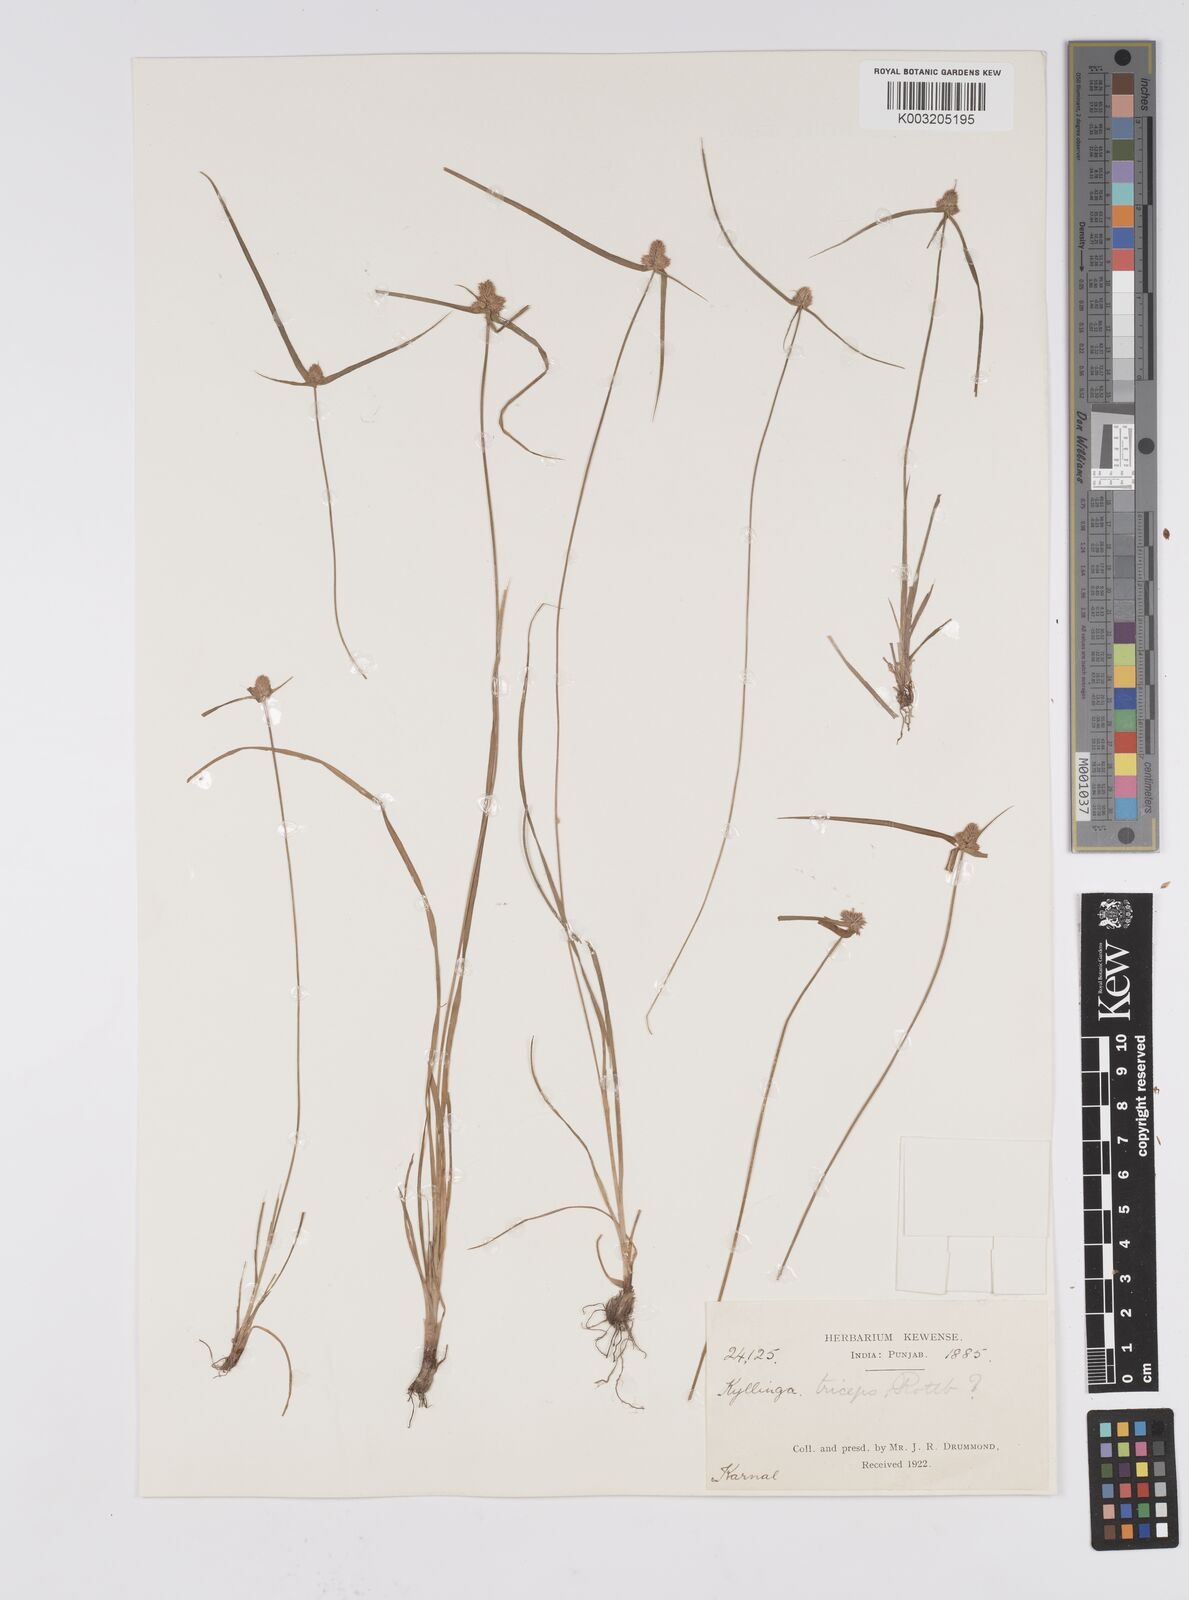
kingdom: Plantae
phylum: Tracheophyta
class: Liliopsida
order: Poales
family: Cyperaceae
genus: Cyperus
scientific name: Cyperus
